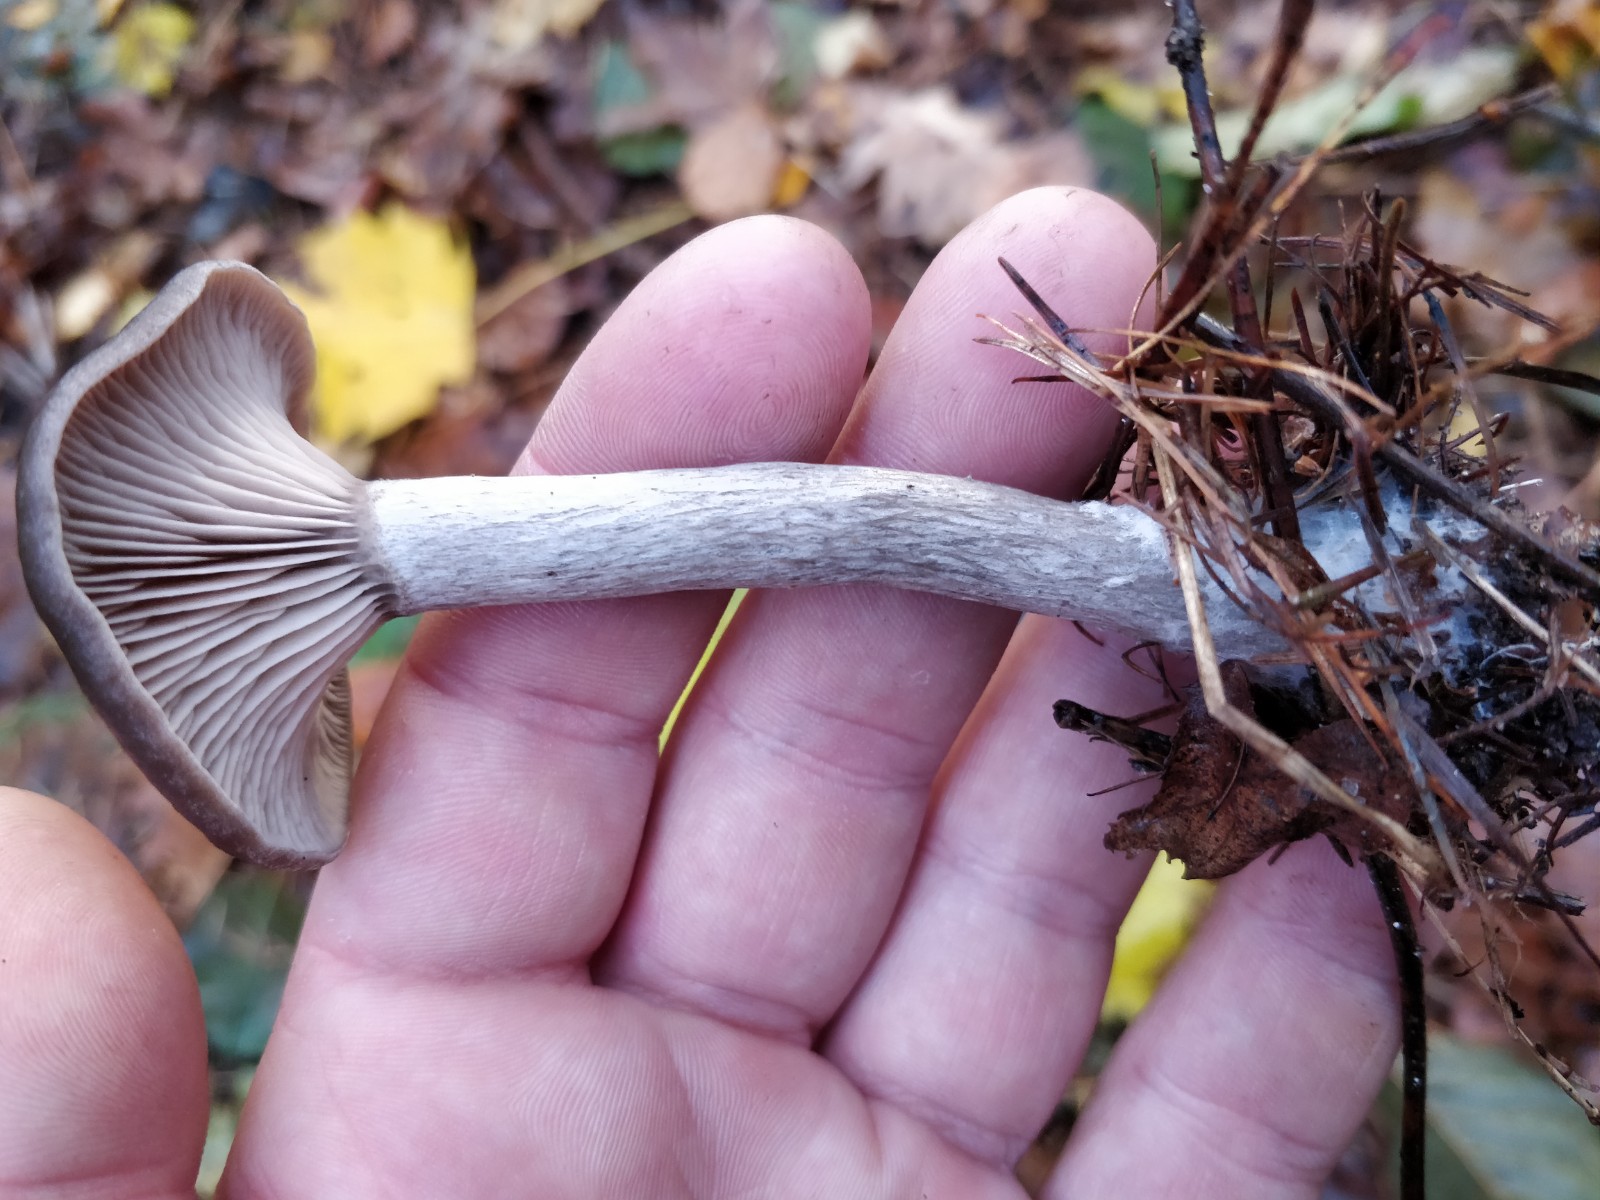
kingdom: Fungi
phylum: Basidiomycota
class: Agaricomycetes
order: Agaricales
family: Pseudoclitocybaceae
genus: Pseudoclitocybe
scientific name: Pseudoclitocybe cyathiformis
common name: almindelig bægertragthat
